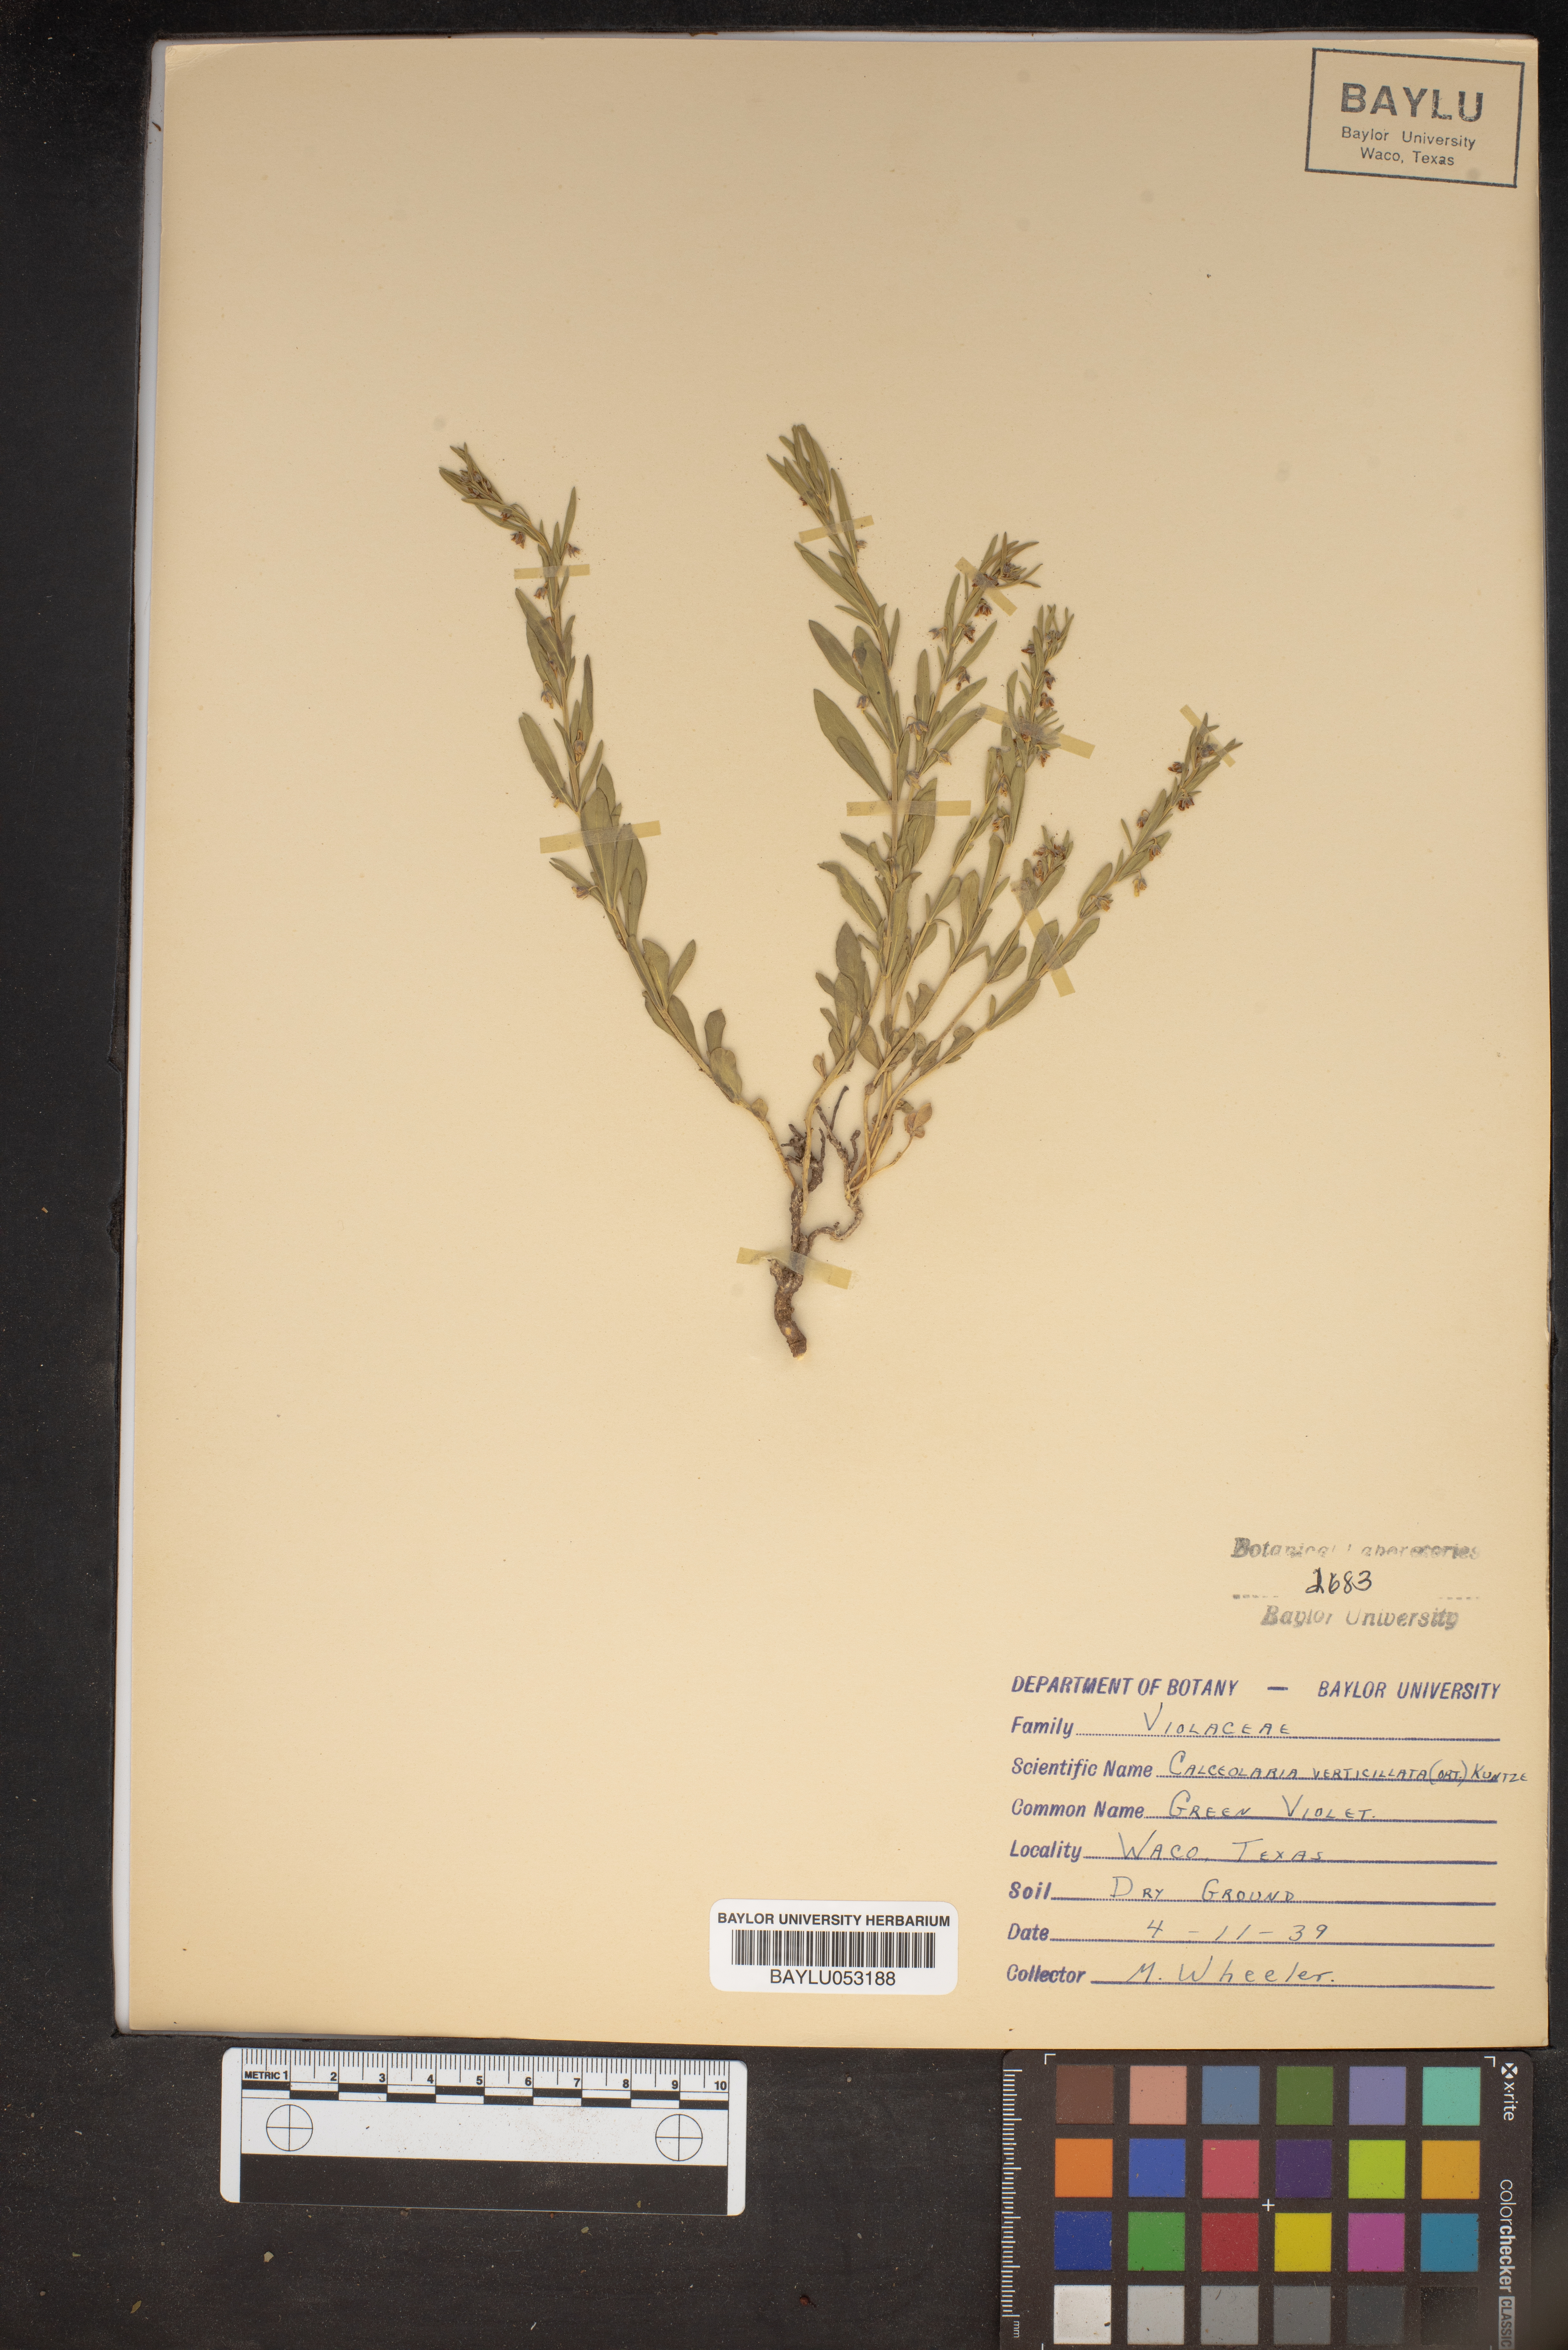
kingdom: Plantae
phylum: Tracheophyta
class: Magnoliopsida
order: Malpighiales
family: Violaceae
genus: Pombalia
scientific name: Pombalia verticillata
